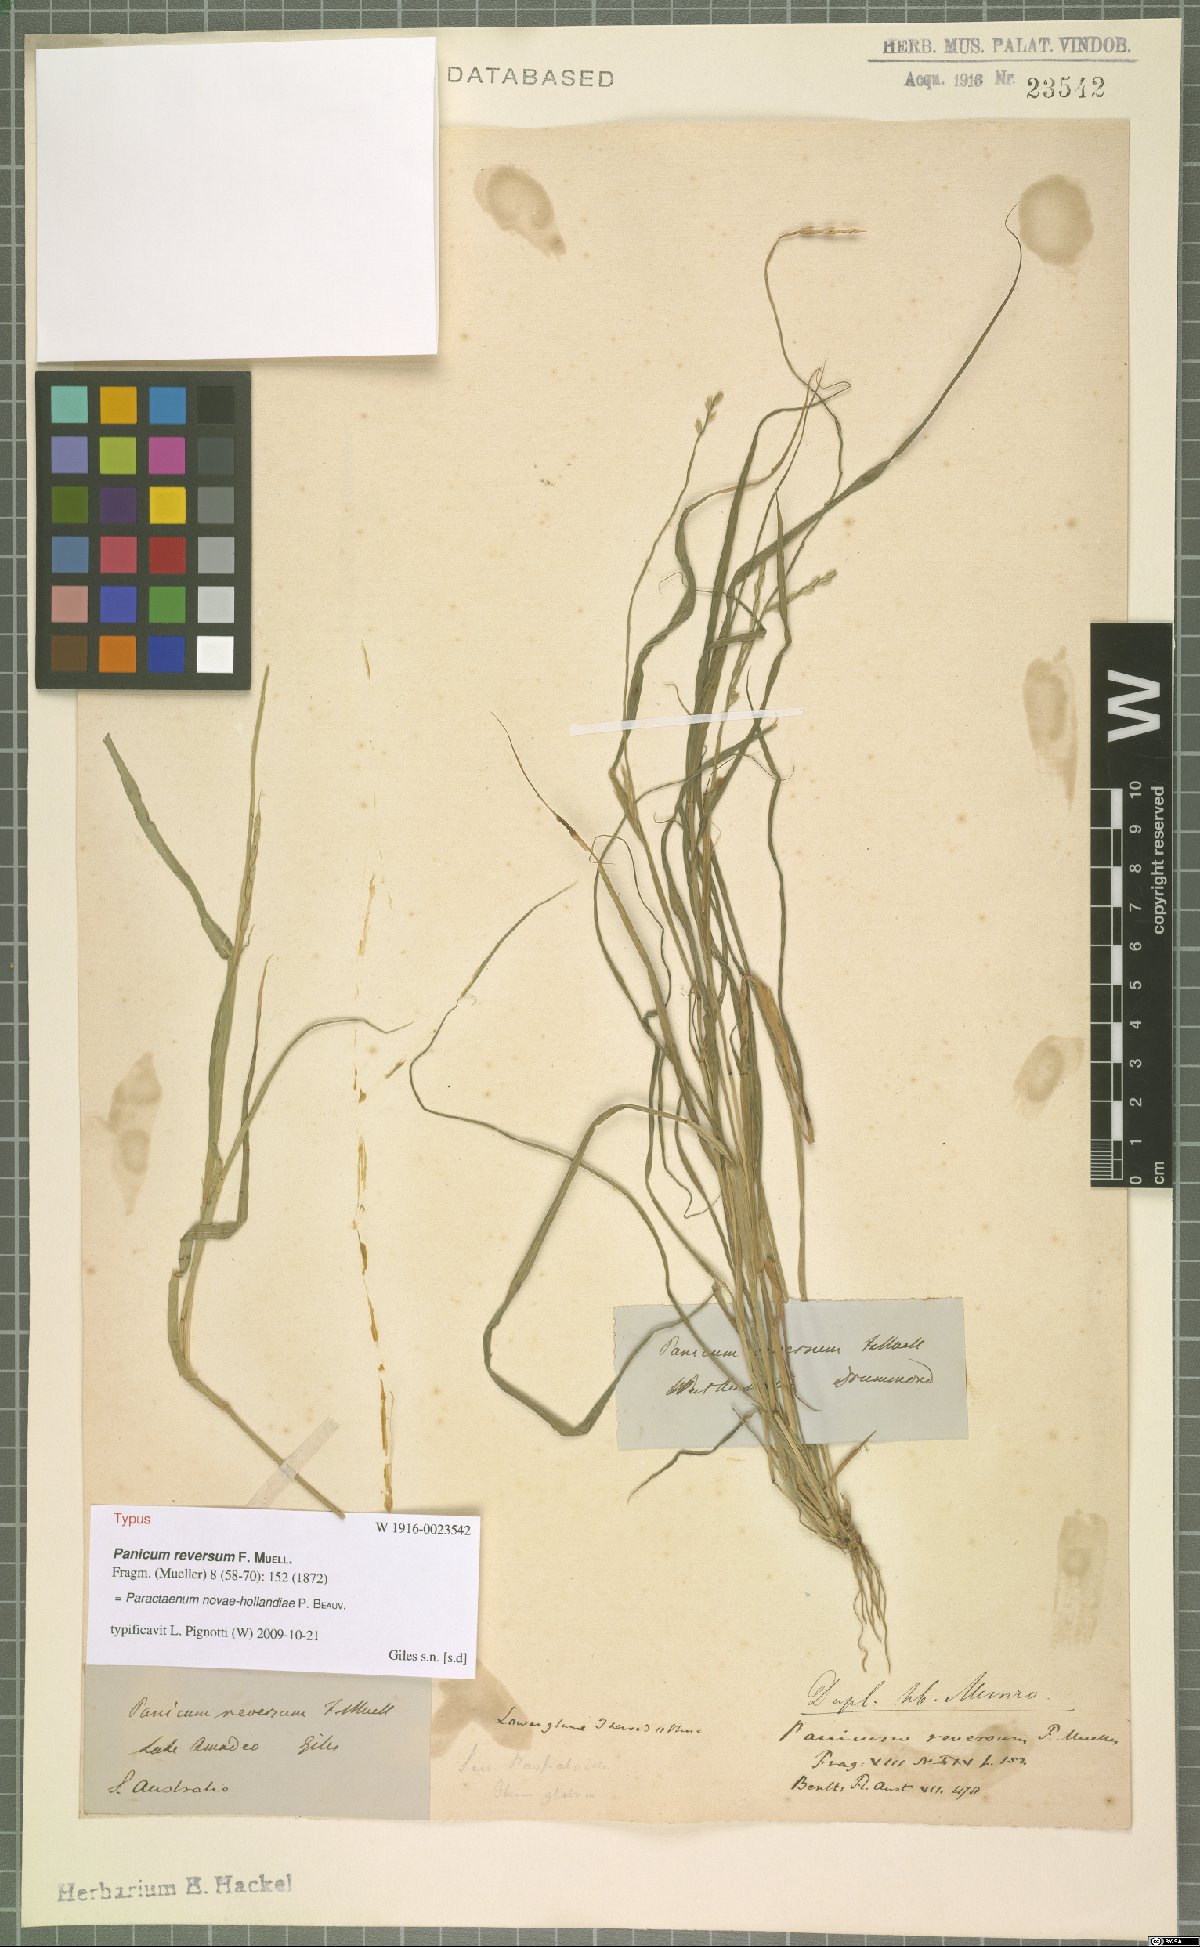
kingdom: Plantae
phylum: Tracheophyta
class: Liliopsida
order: Poales
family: Poaceae
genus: Paractaenum
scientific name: Paractaenum novae-hollandiae
